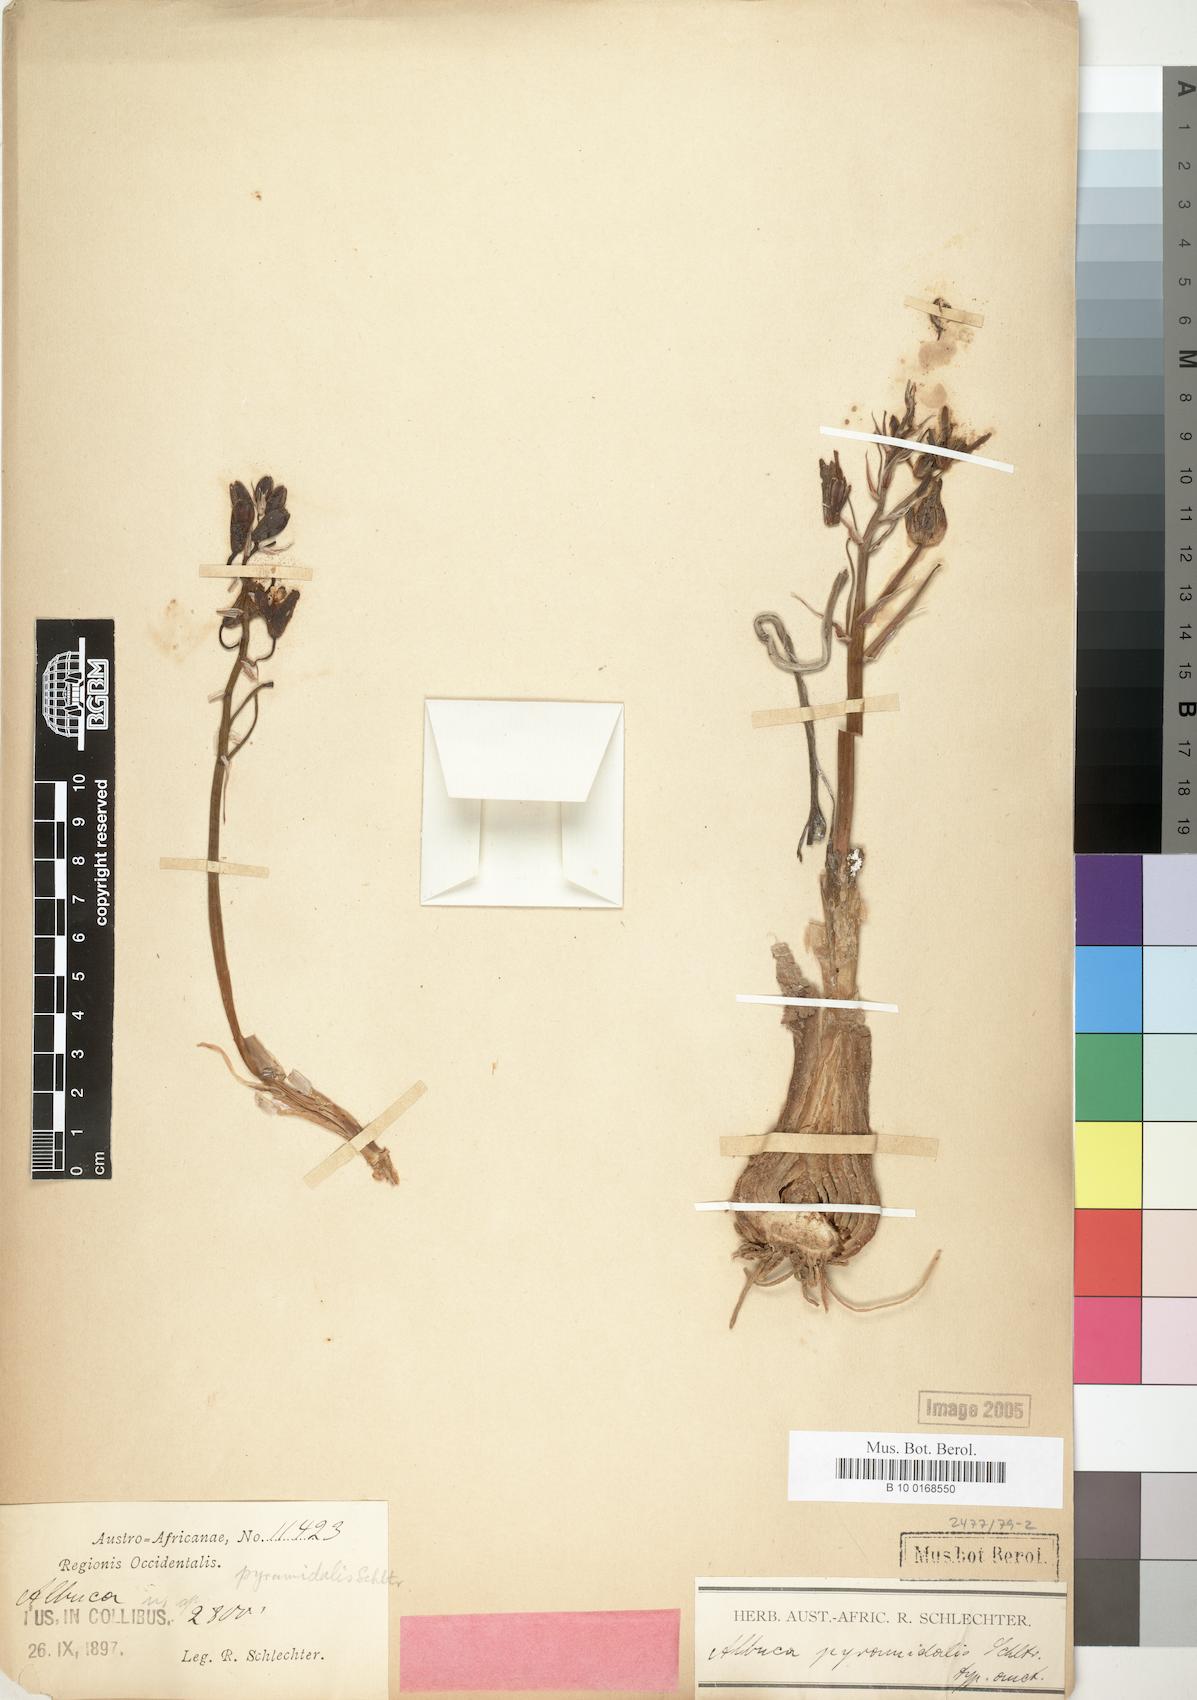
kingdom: Plantae
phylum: Tracheophyta
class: Liliopsida
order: Asparagales
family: Asparagaceae
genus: Albuca
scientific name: Albuca
